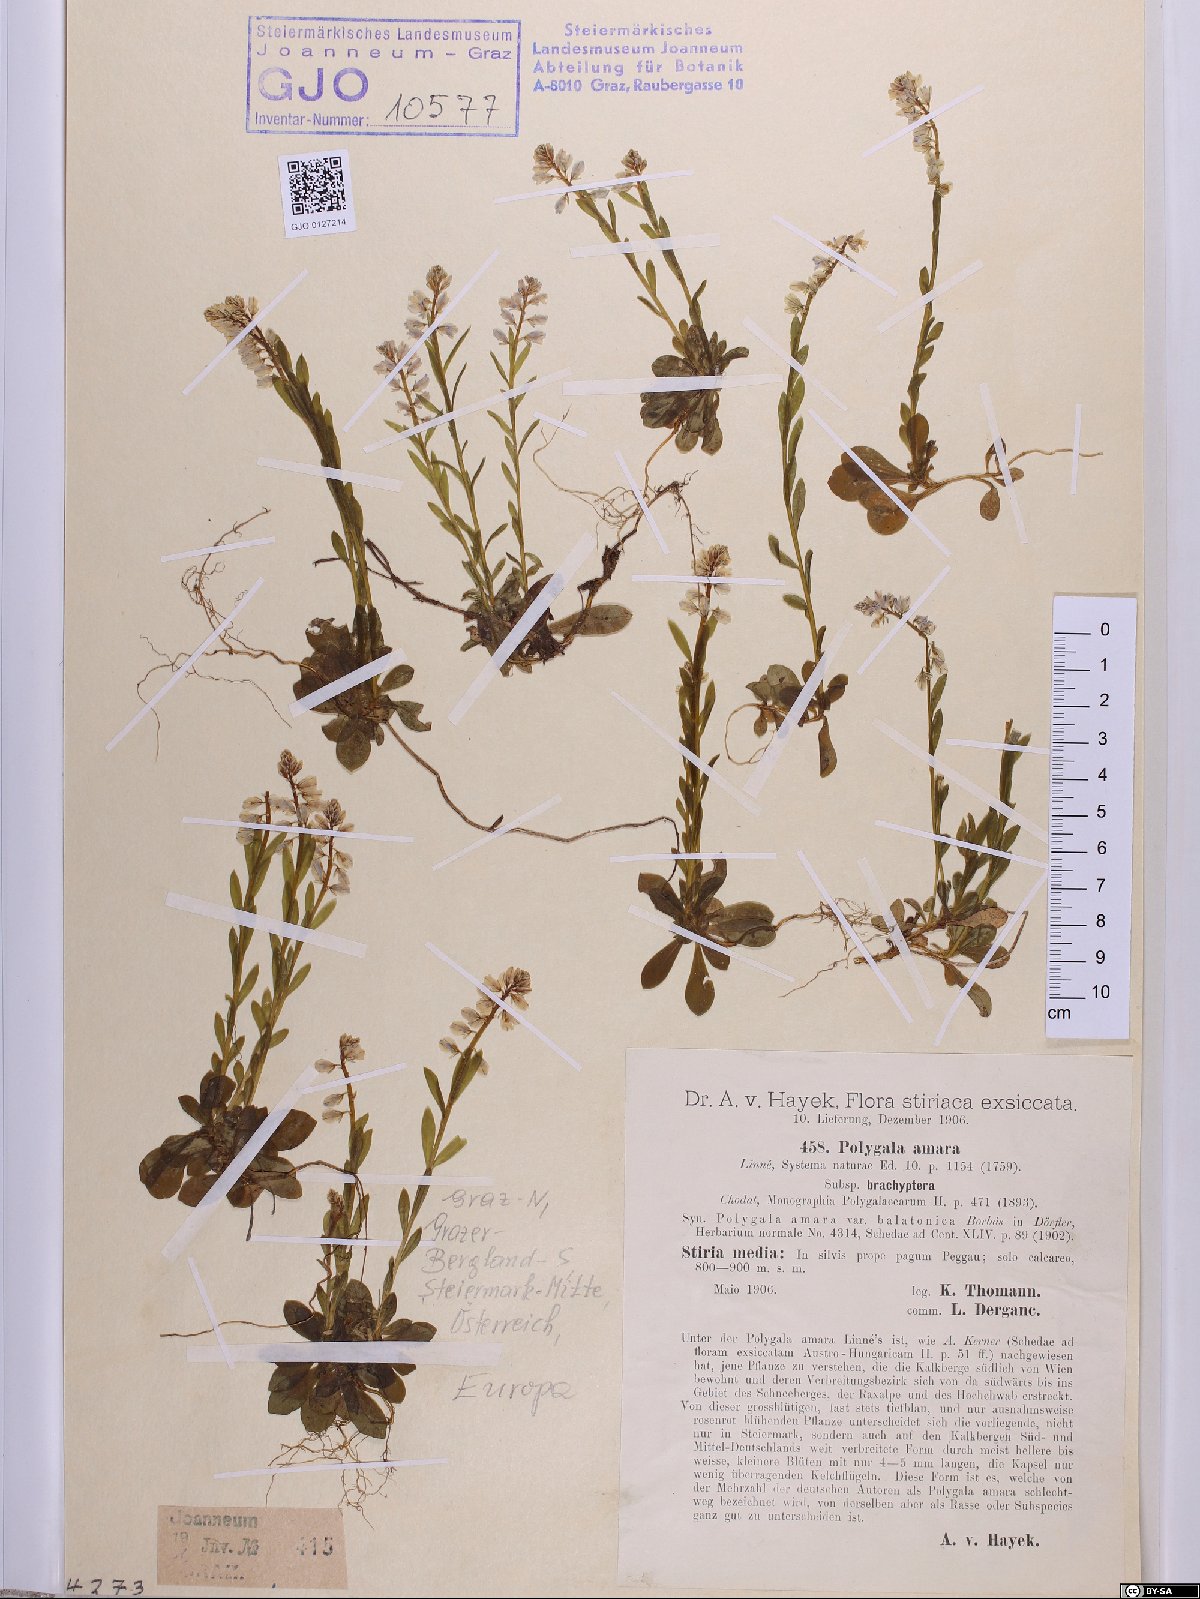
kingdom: Plantae
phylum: Tracheophyta
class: Magnoliopsida
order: Fabales
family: Polygalaceae
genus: Polygala
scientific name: Polygala amara
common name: Milkwort
